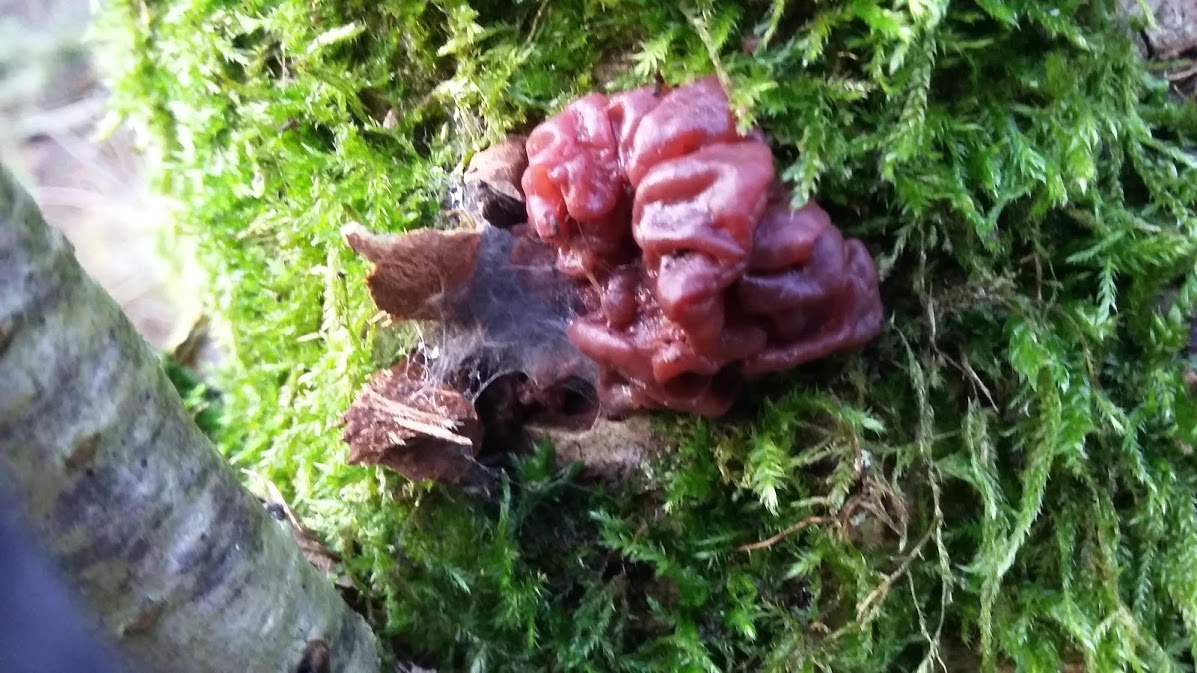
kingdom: Fungi
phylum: Ascomycota
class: Leotiomycetes
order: Helotiales
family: Gelatinodiscaceae
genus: Ascocoryne
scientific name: Ascocoryne sarcoides
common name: rødlilla sejskive
